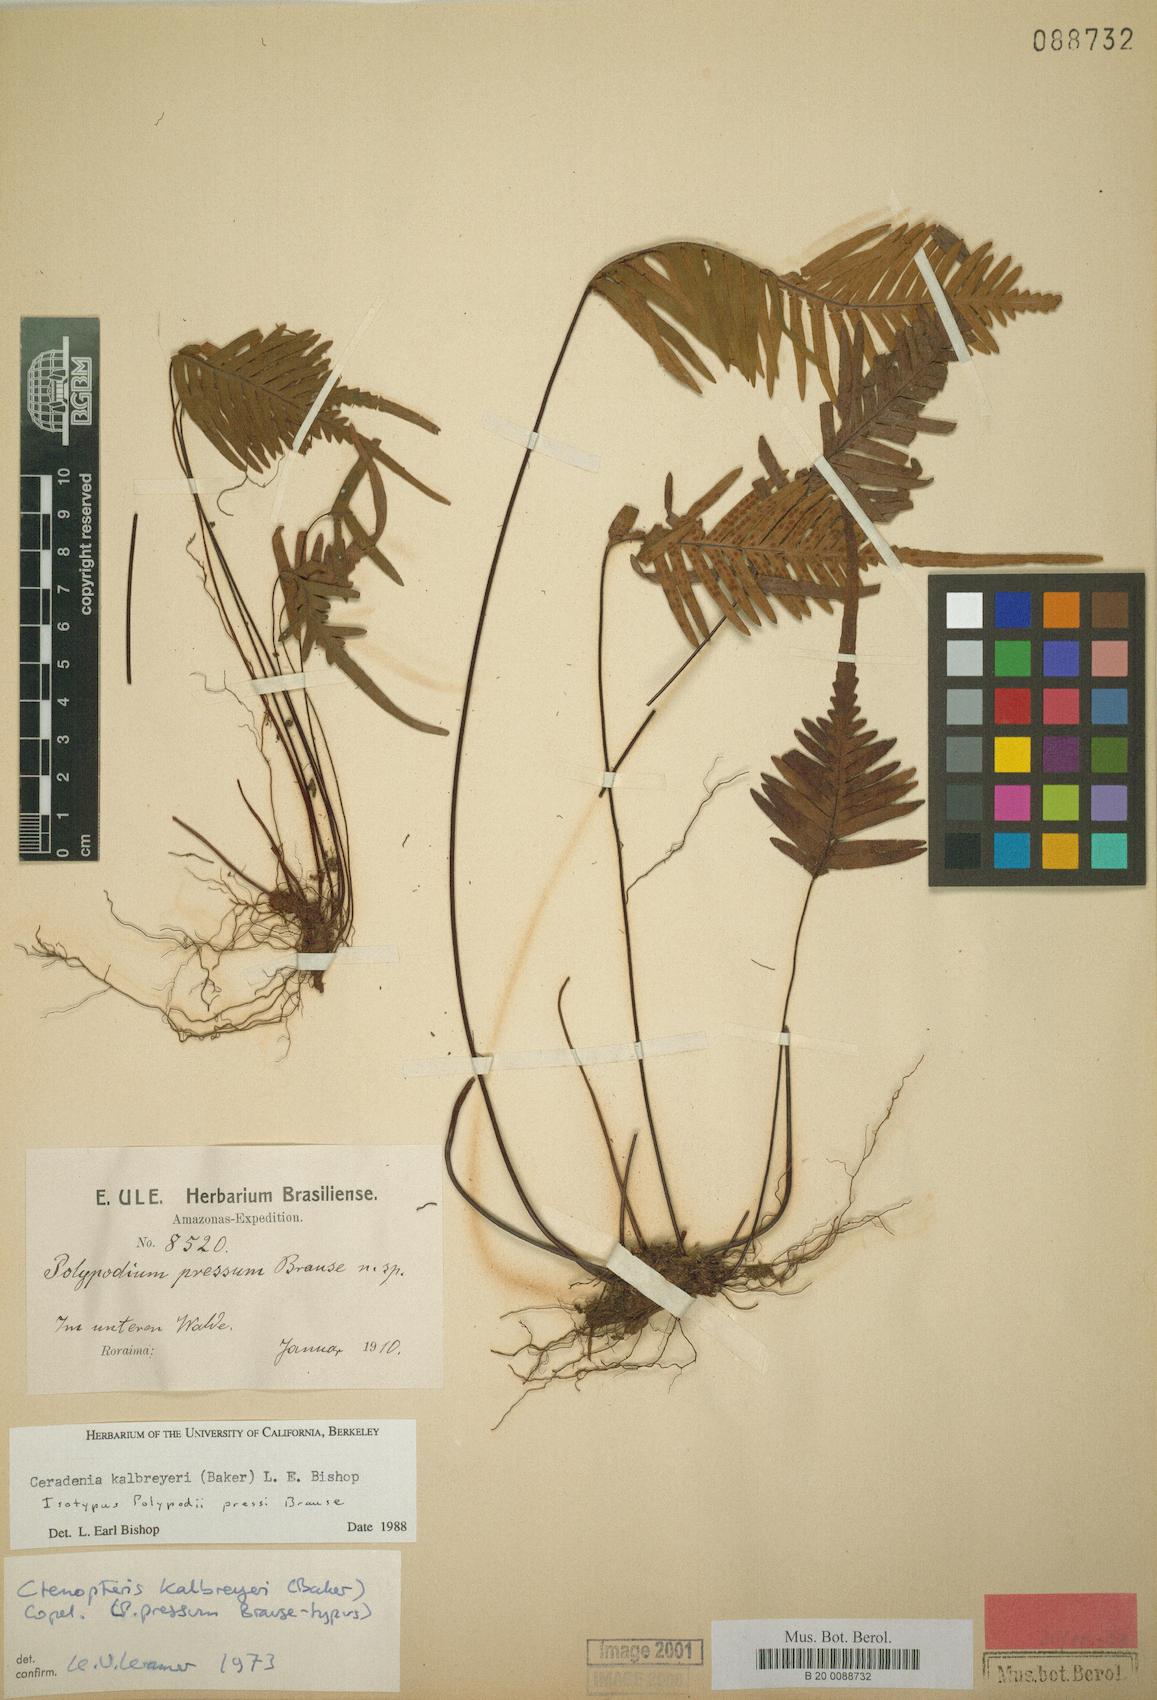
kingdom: Plantae
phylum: Tracheophyta
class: Polypodiopsida
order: Polypodiales
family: Polypodiaceae
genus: Ceradenia
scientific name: Ceradenia kalbreyeri
